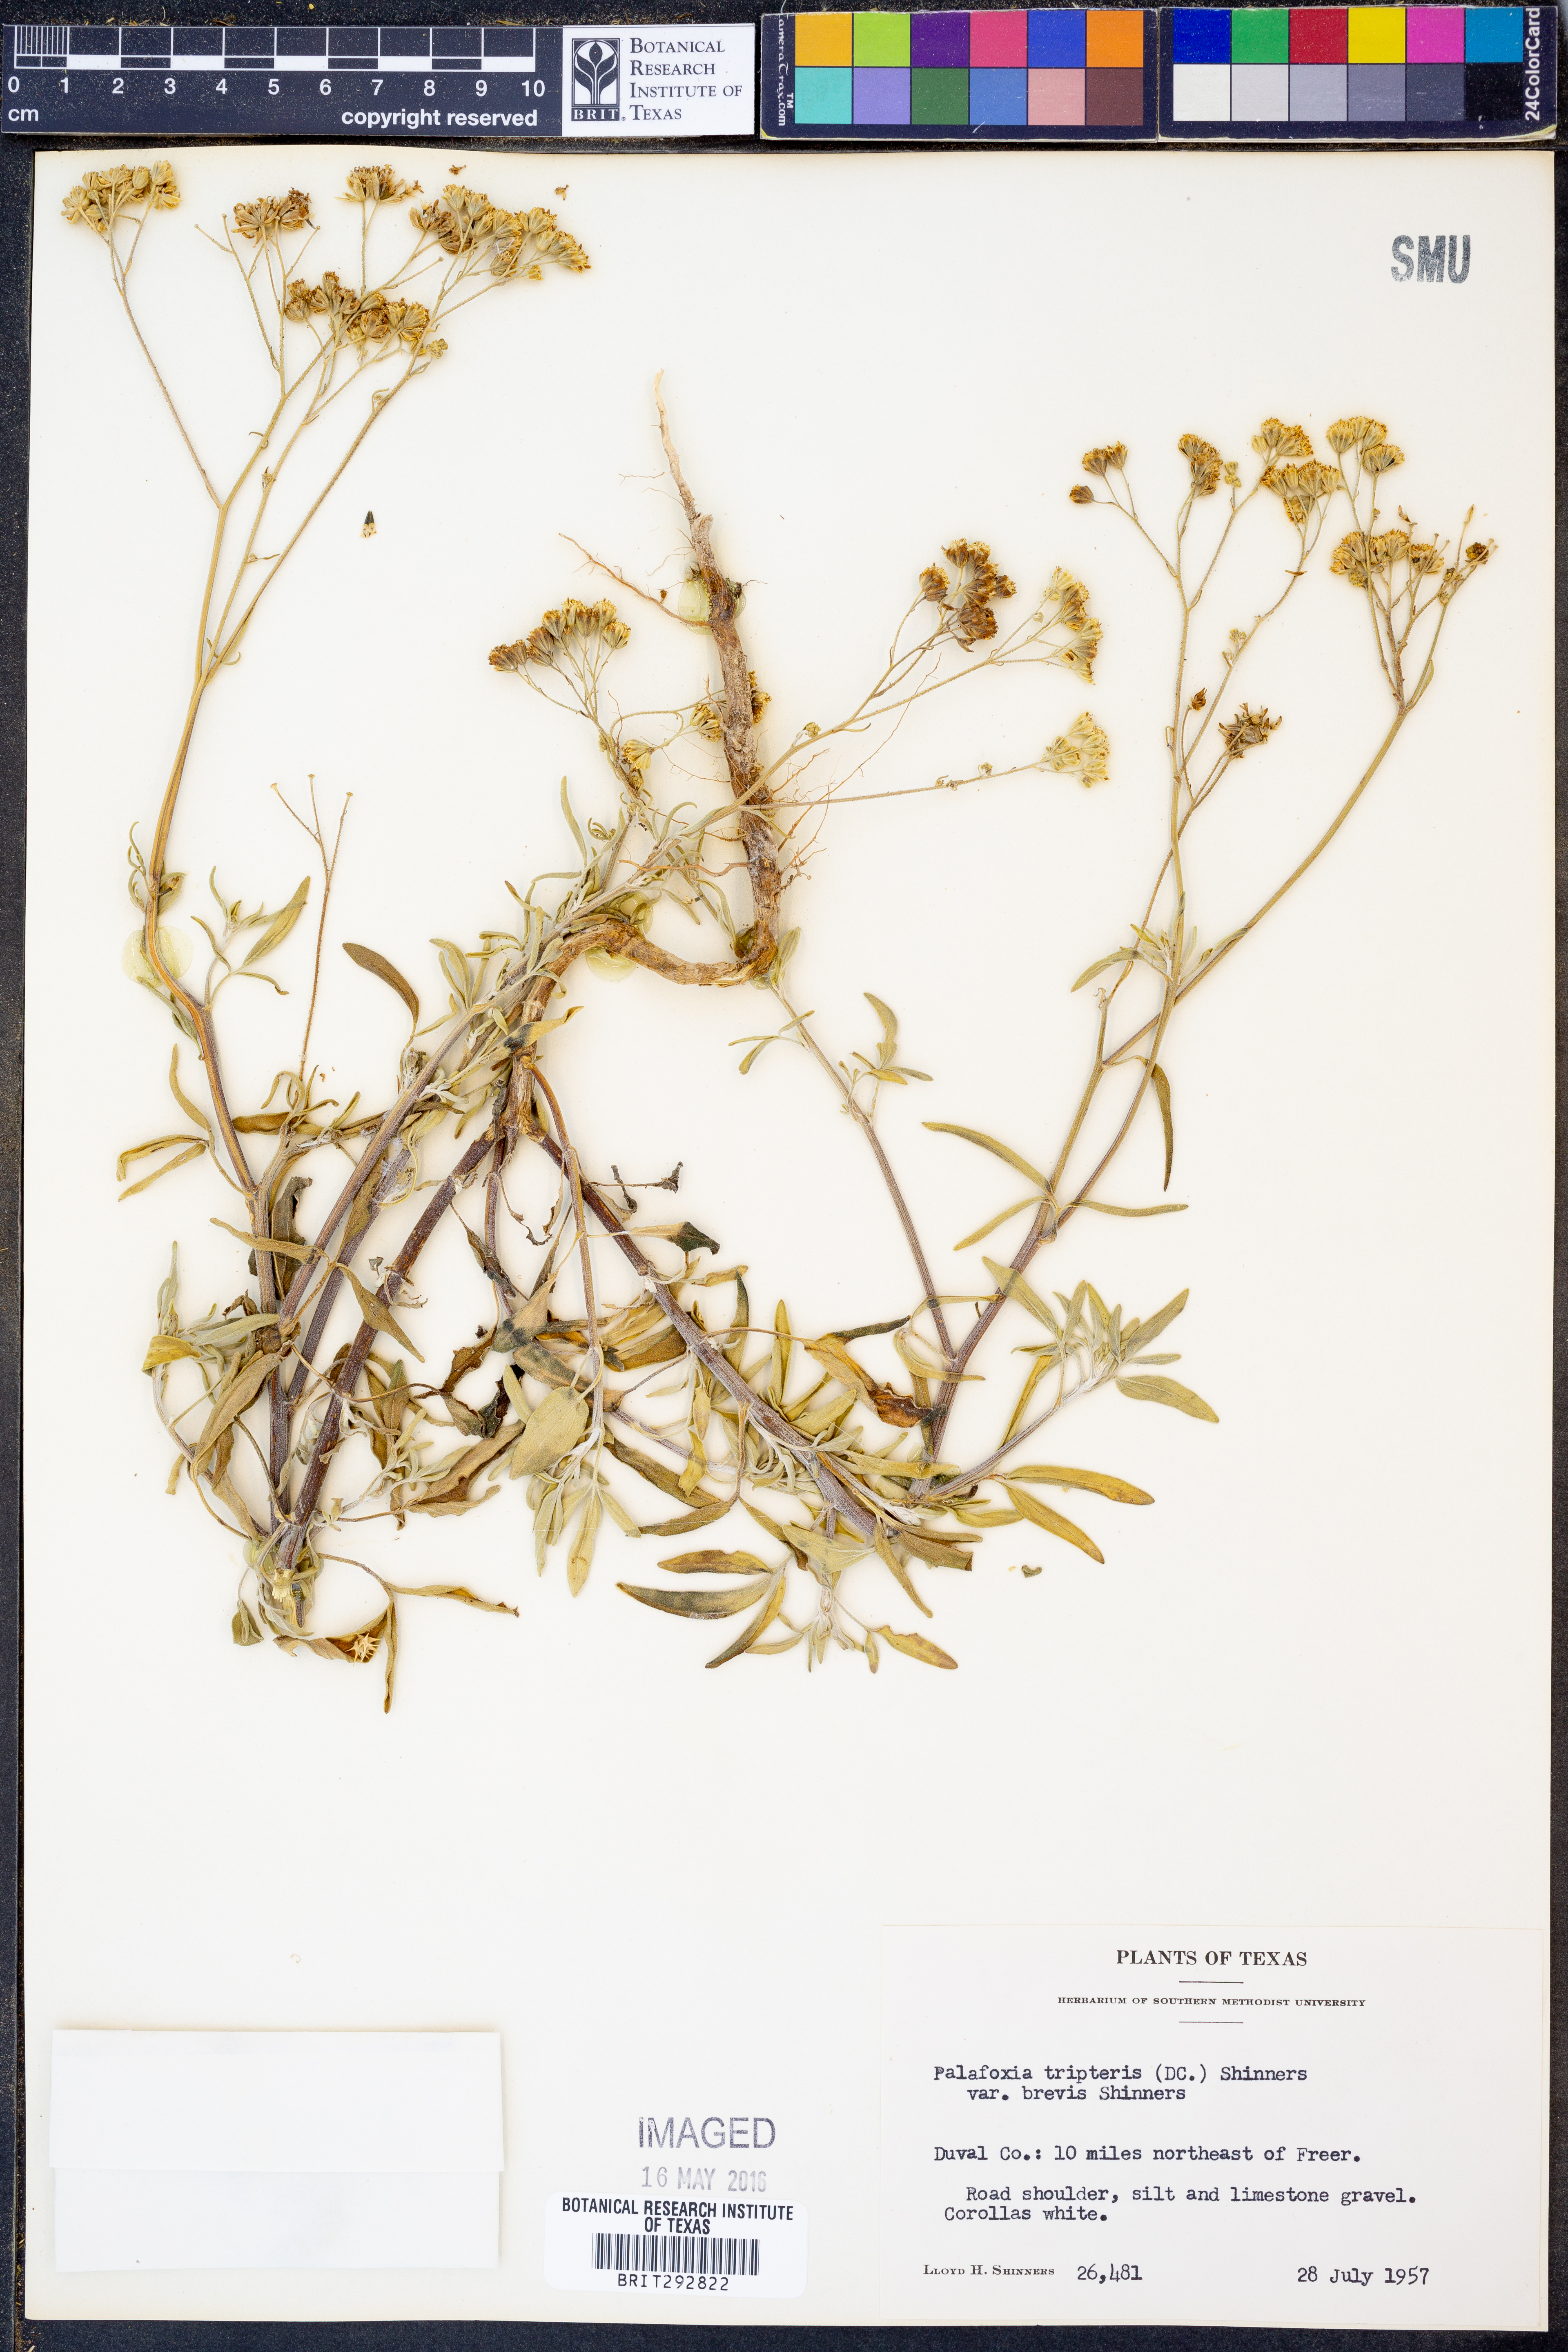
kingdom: Plantae
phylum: Tracheophyta
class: Magnoliopsida
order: Asterales
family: Asteraceae
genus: Florestina
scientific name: Florestina tripteris
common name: Sticky florestina
